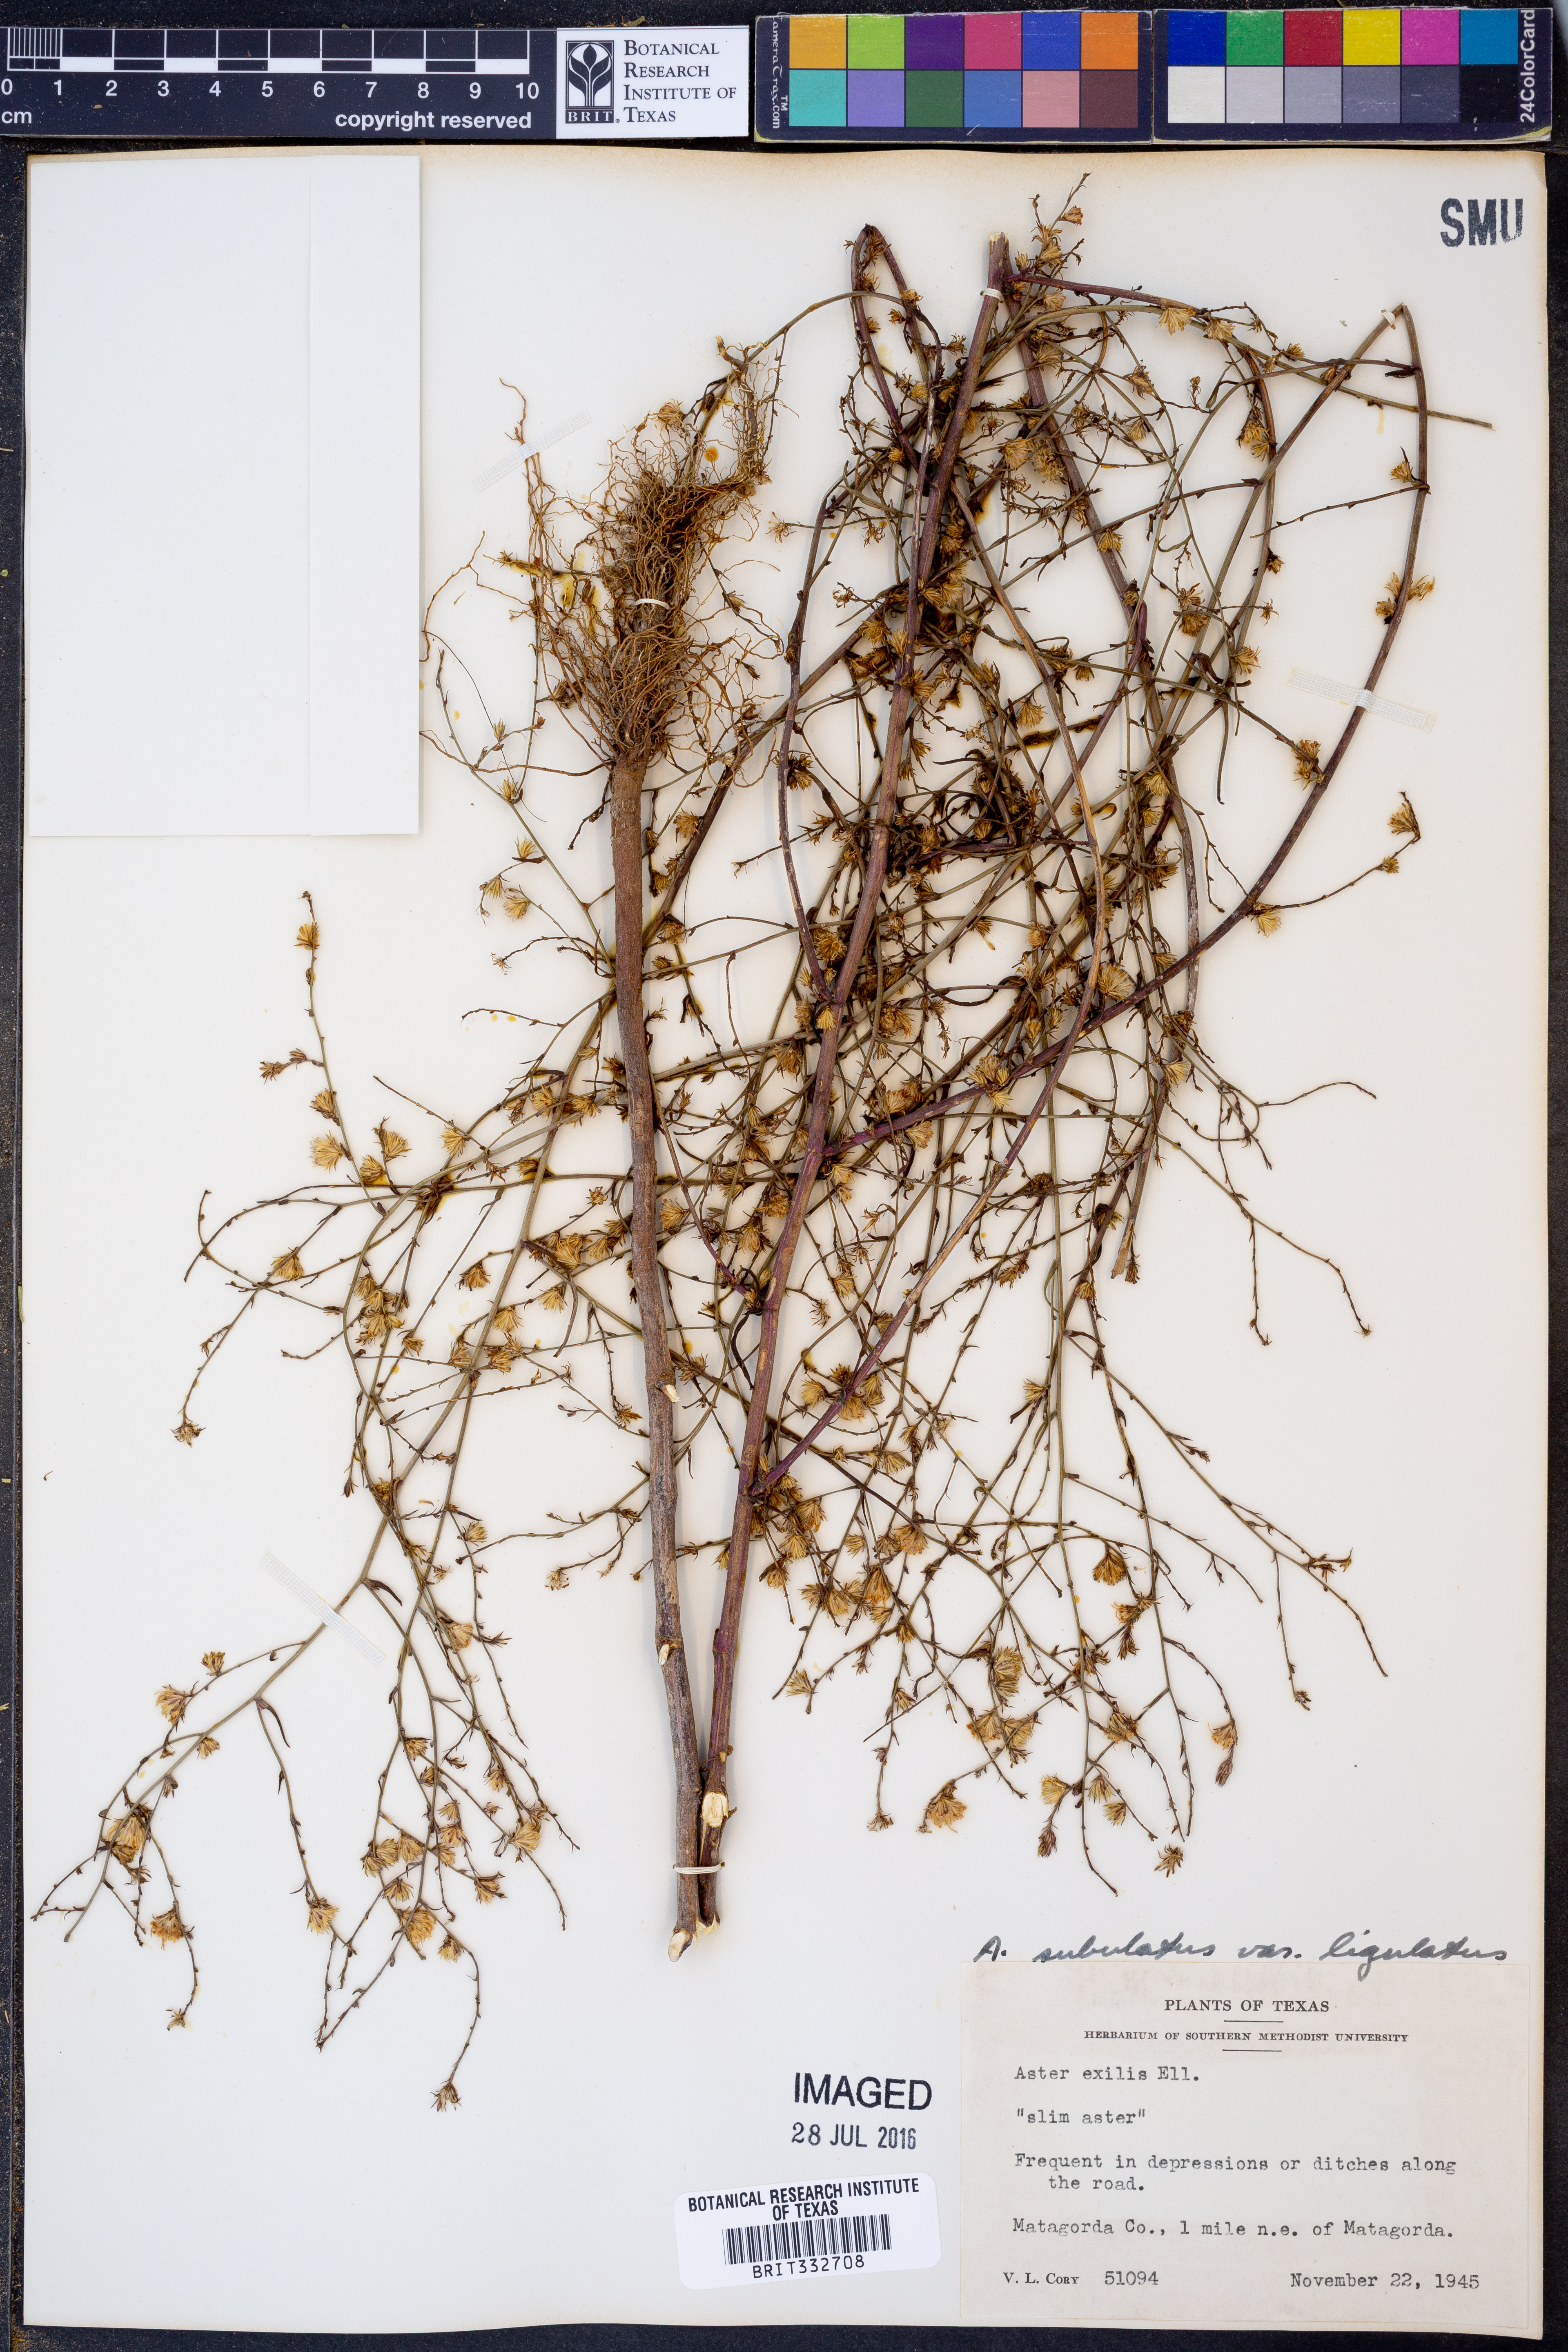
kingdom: Plantae
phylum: Tracheophyta
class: Magnoliopsida
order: Asterales
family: Asteraceae
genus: Symphyotrichum
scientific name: Symphyotrichum subulatum
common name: Annual saltmarsh aster
